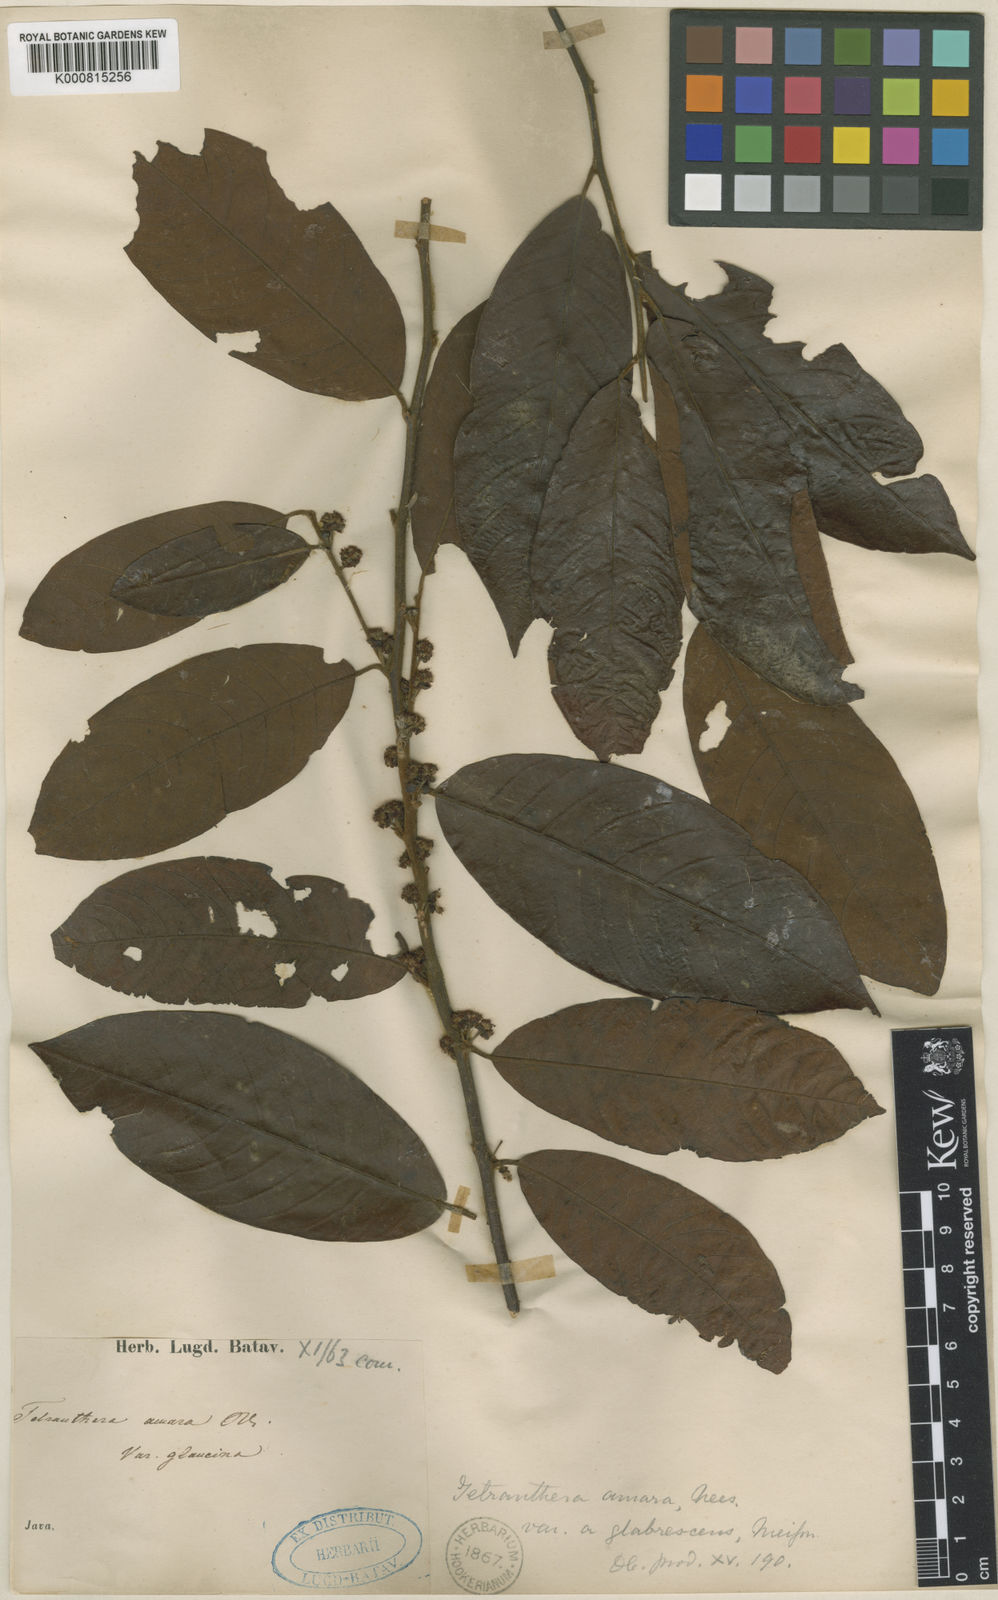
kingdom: Plantae
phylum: Tracheophyta
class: Magnoliopsida
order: Laurales
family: Lauraceae
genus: Litsea
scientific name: Litsea umbellata
